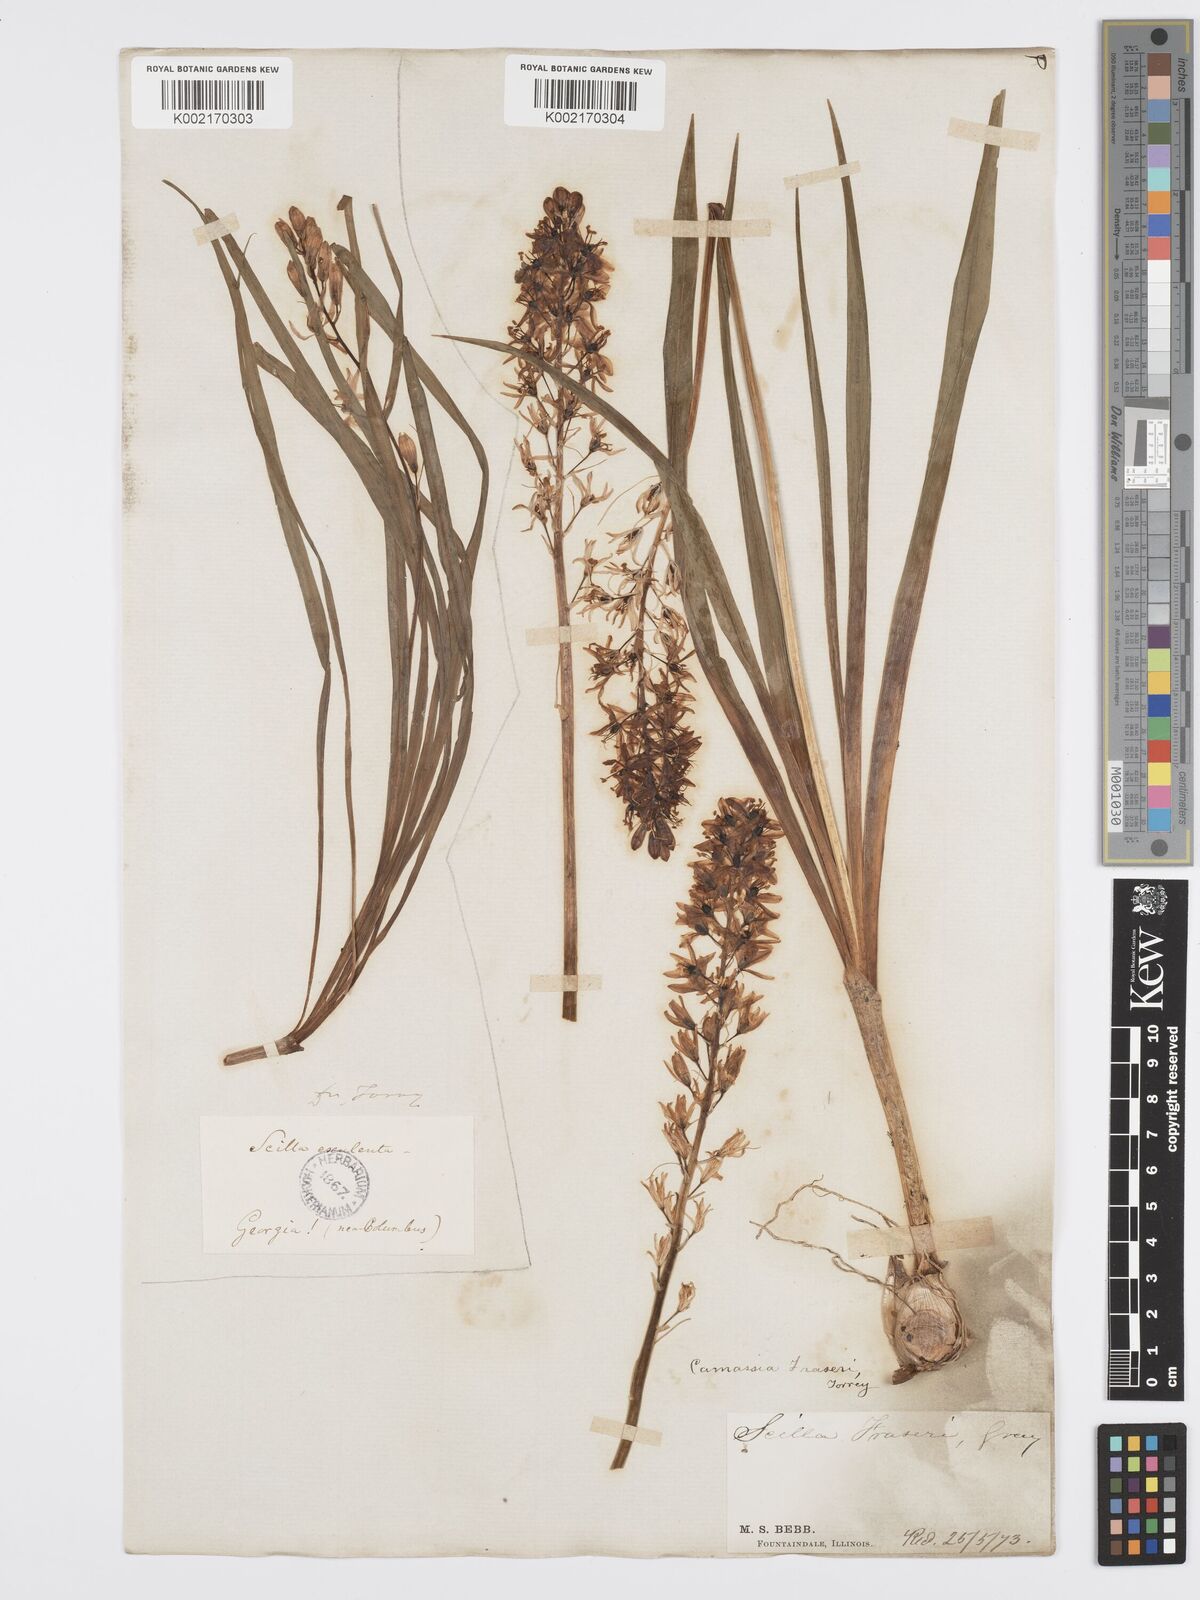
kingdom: Plantae
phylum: Tracheophyta
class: Liliopsida
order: Asparagales
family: Asparagaceae
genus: Camassia
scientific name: Camassia scilloides
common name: Wild hyacinth
